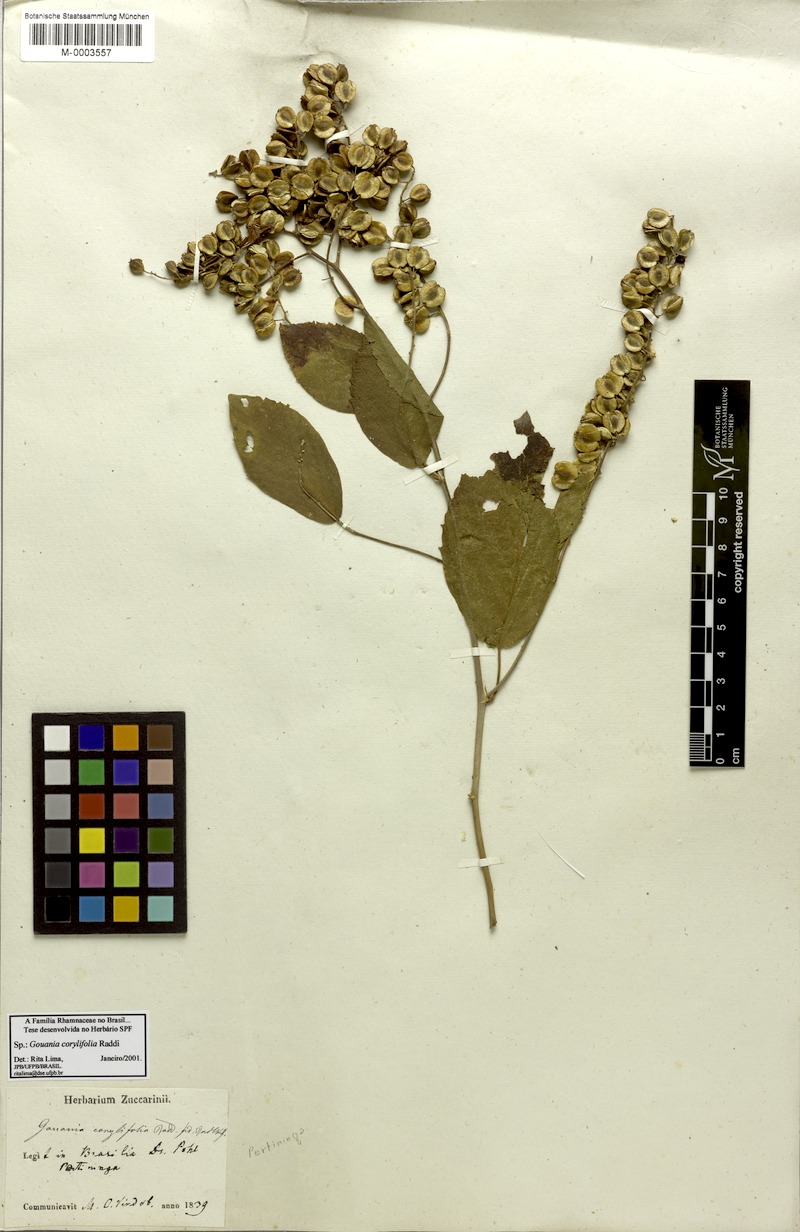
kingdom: Plantae
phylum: Tracheophyta
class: Magnoliopsida
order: Rosales
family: Rhamnaceae
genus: Gouania
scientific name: Gouania corylifolia
